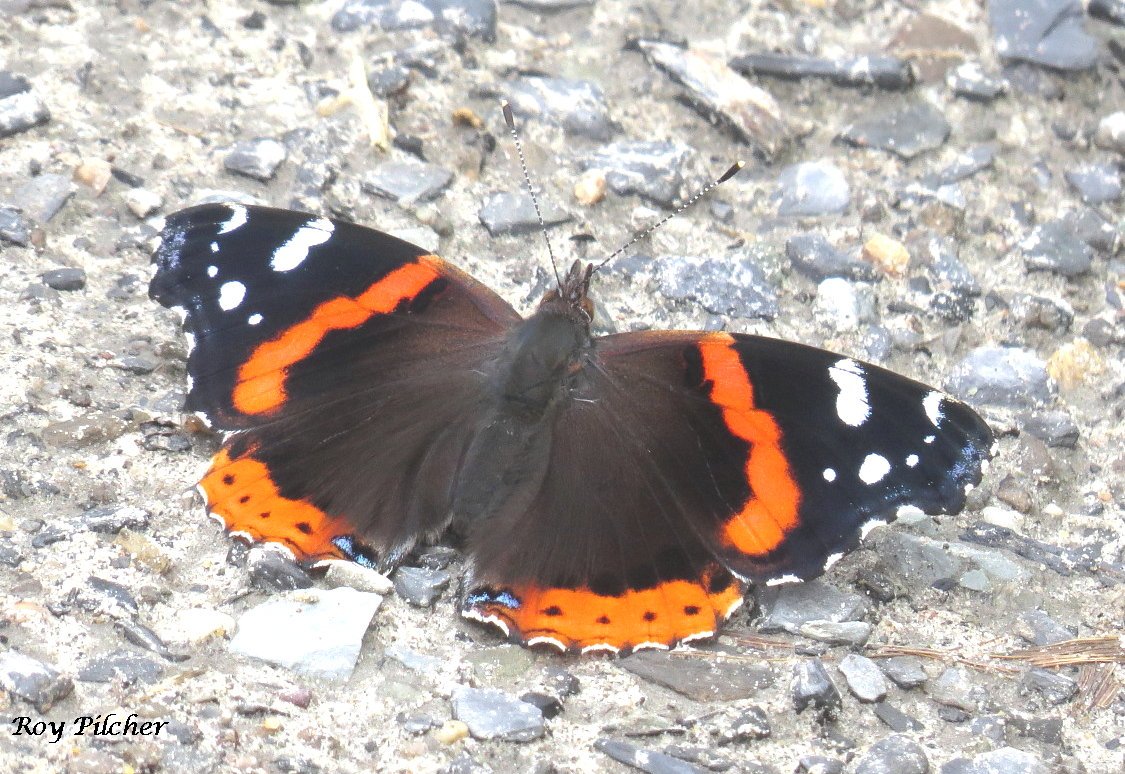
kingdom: Animalia
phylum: Arthropoda
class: Insecta
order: Lepidoptera
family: Nymphalidae
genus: Vanessa
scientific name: Vanessa atalanta
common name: Red Admiral
